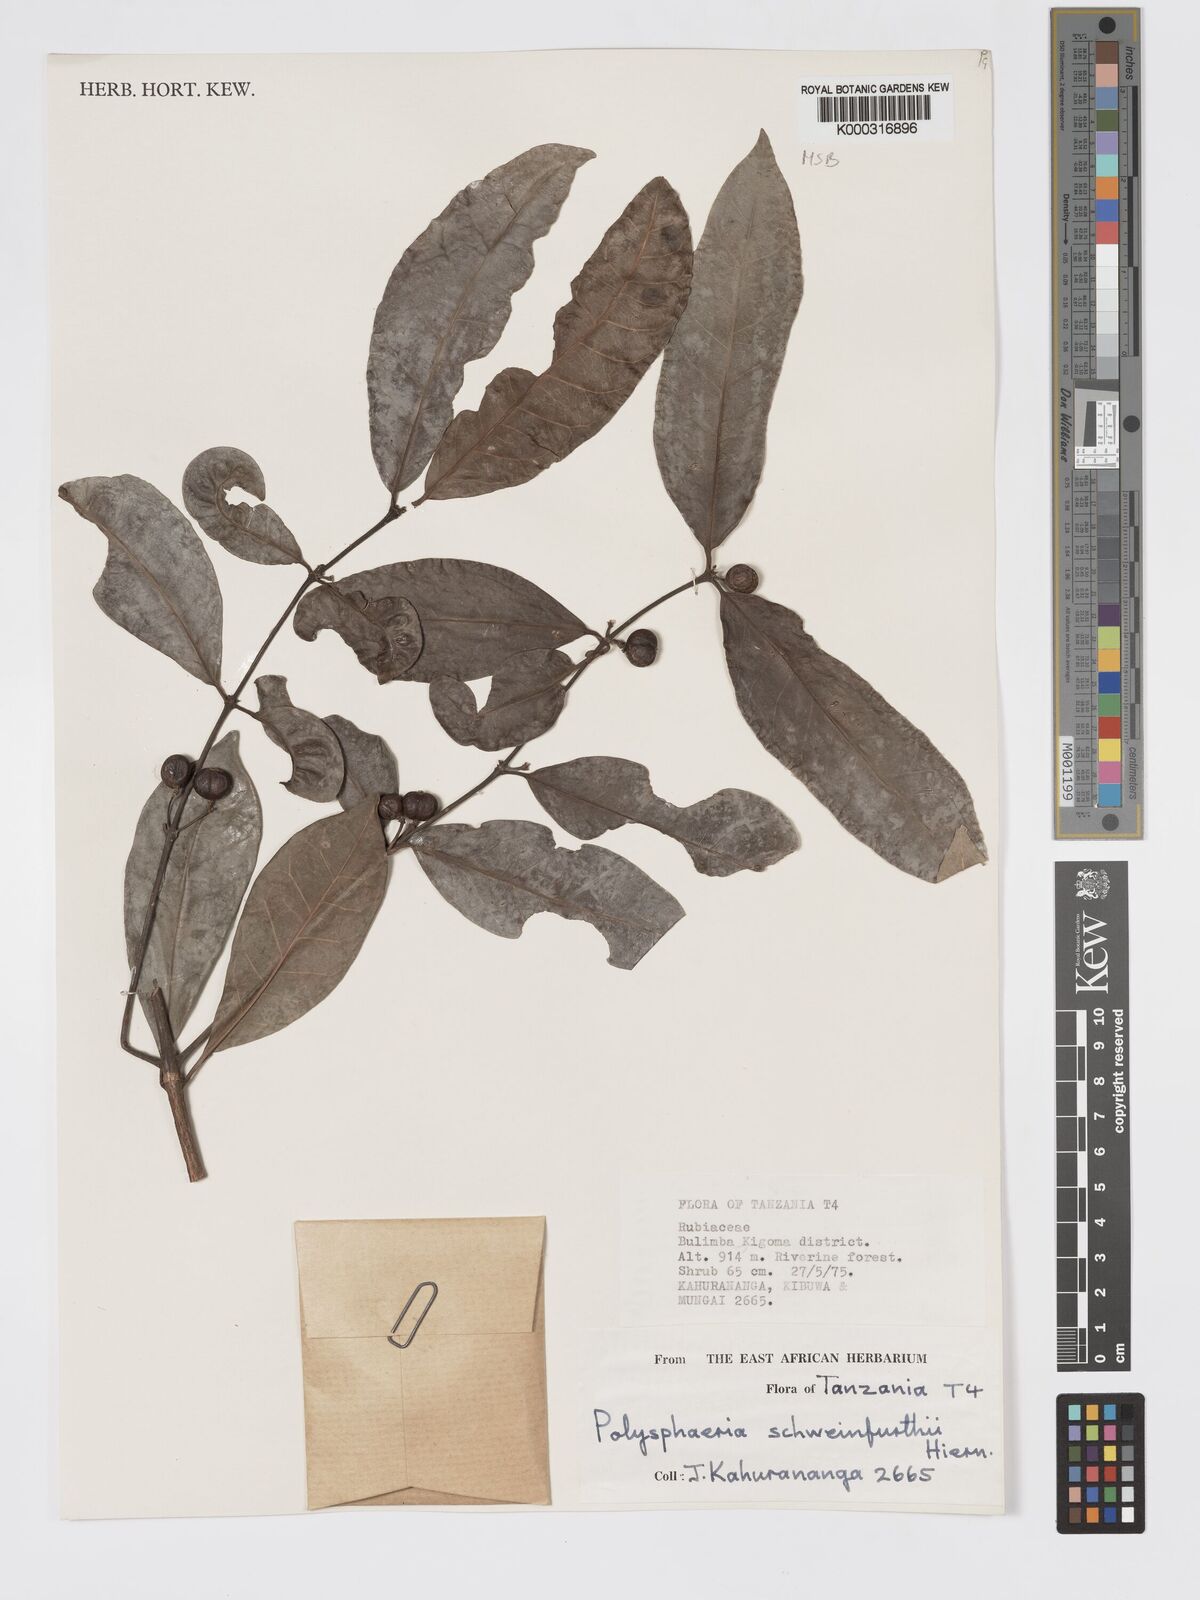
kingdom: Plantae
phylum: Tracheophyta
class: Magnoliopsida
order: Gentianales
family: Rubiaceae
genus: Polysphaeria
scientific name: Polysphaeria lanceolata
